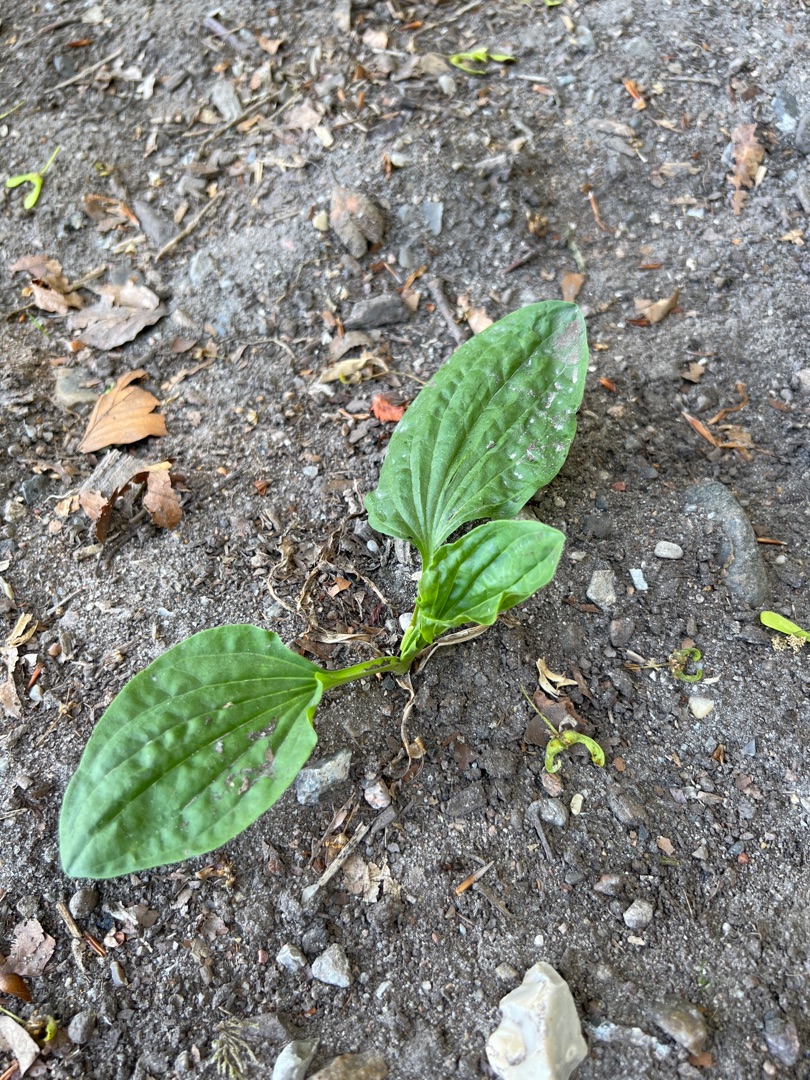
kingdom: Plantae
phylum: Tracheophyta
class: Magnoliopsida
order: Lamiales
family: Plantaginaceae
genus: Plantago
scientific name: Plantago major
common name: Glat vejbred
